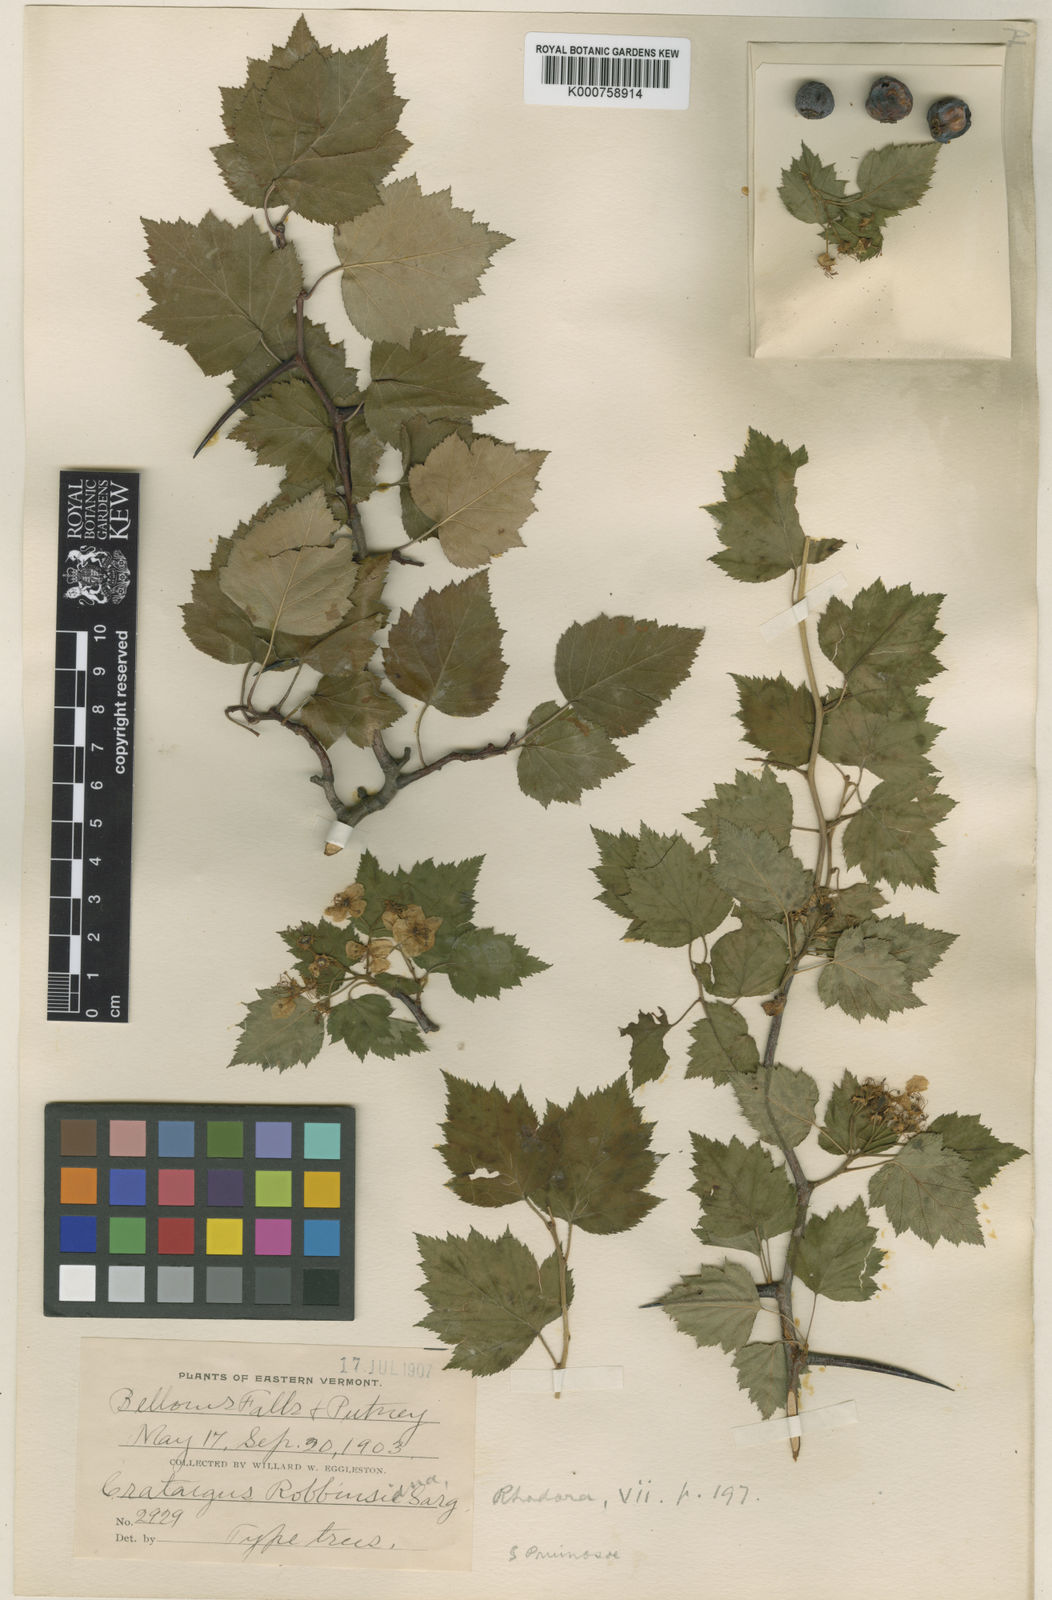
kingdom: Plantae
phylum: Tracheophyta
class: Magnoliopsida
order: Rosales
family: Rosaceae
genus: Crataegus
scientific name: Crataegus iracunda
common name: Stolon-bearing hawthorn
